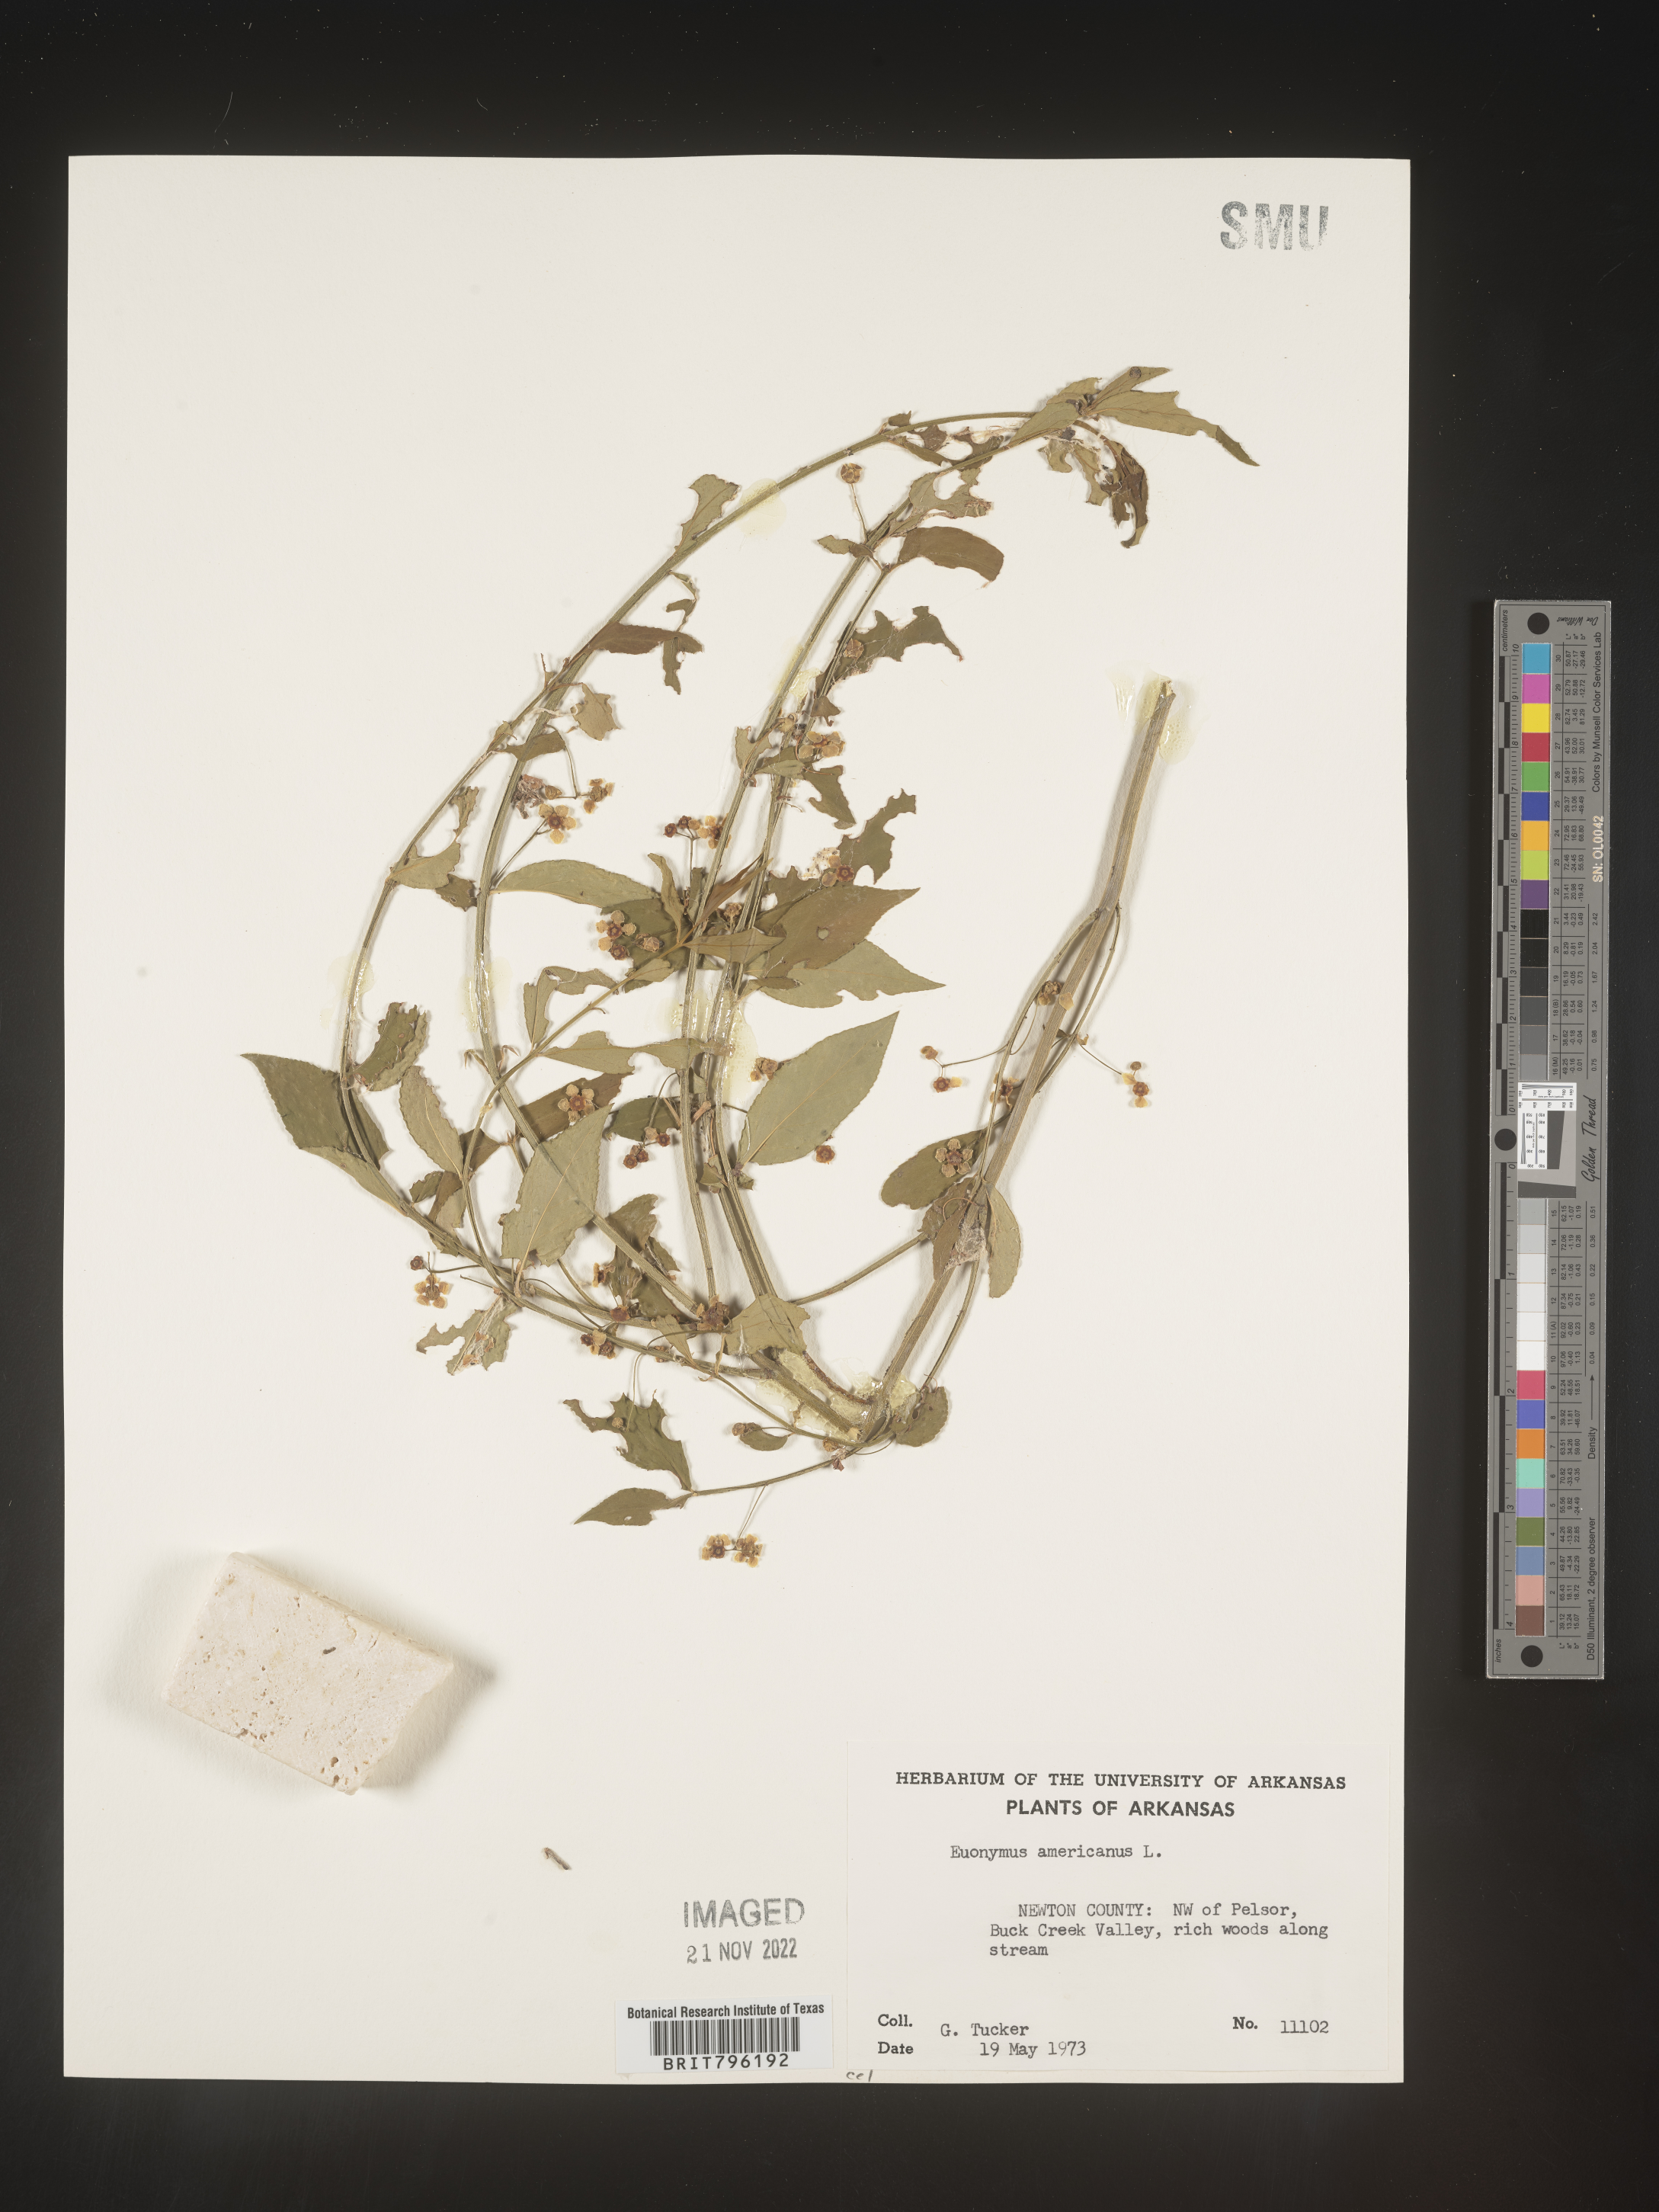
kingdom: Plantae
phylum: Tracheophyta
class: Magnoliopsida
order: Celastrales
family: Celastraceae
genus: Euonymus
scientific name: Euonymus americanus
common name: Bursting-heart
